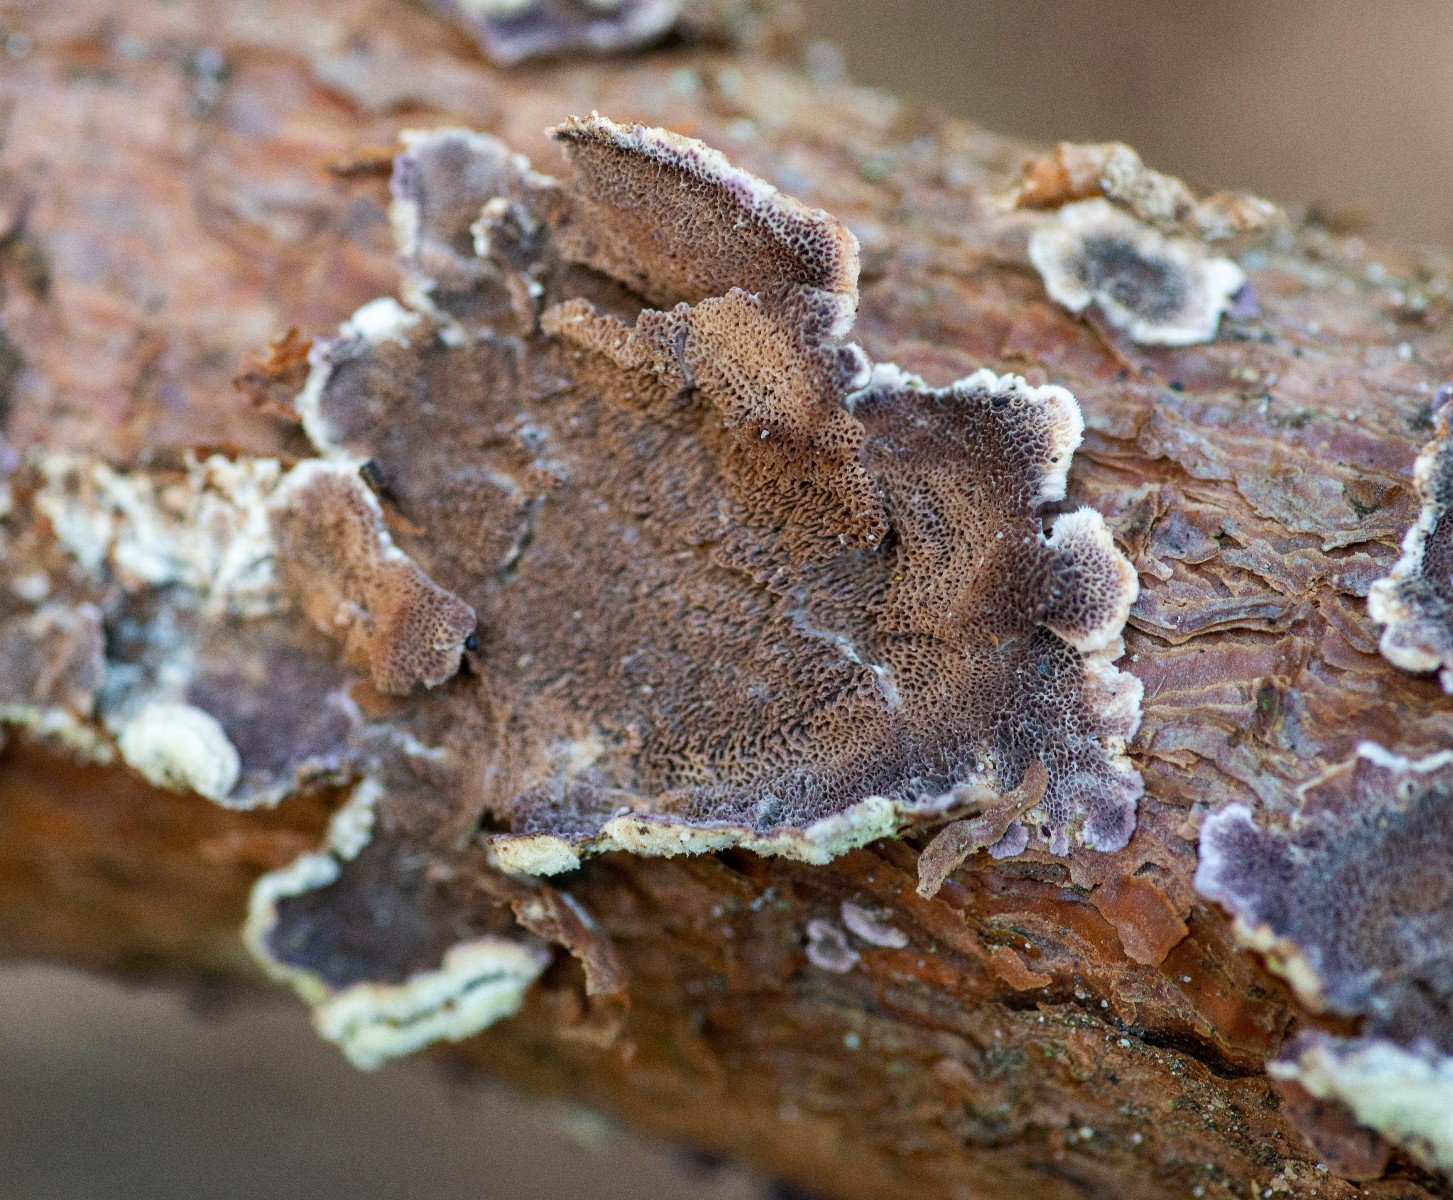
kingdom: Fungi
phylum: Basidiomycota
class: Agaricomycetes
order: Hymenochaetales
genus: Trichaptum
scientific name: Trichaptum abietinum
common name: almindelig violporesvamp
